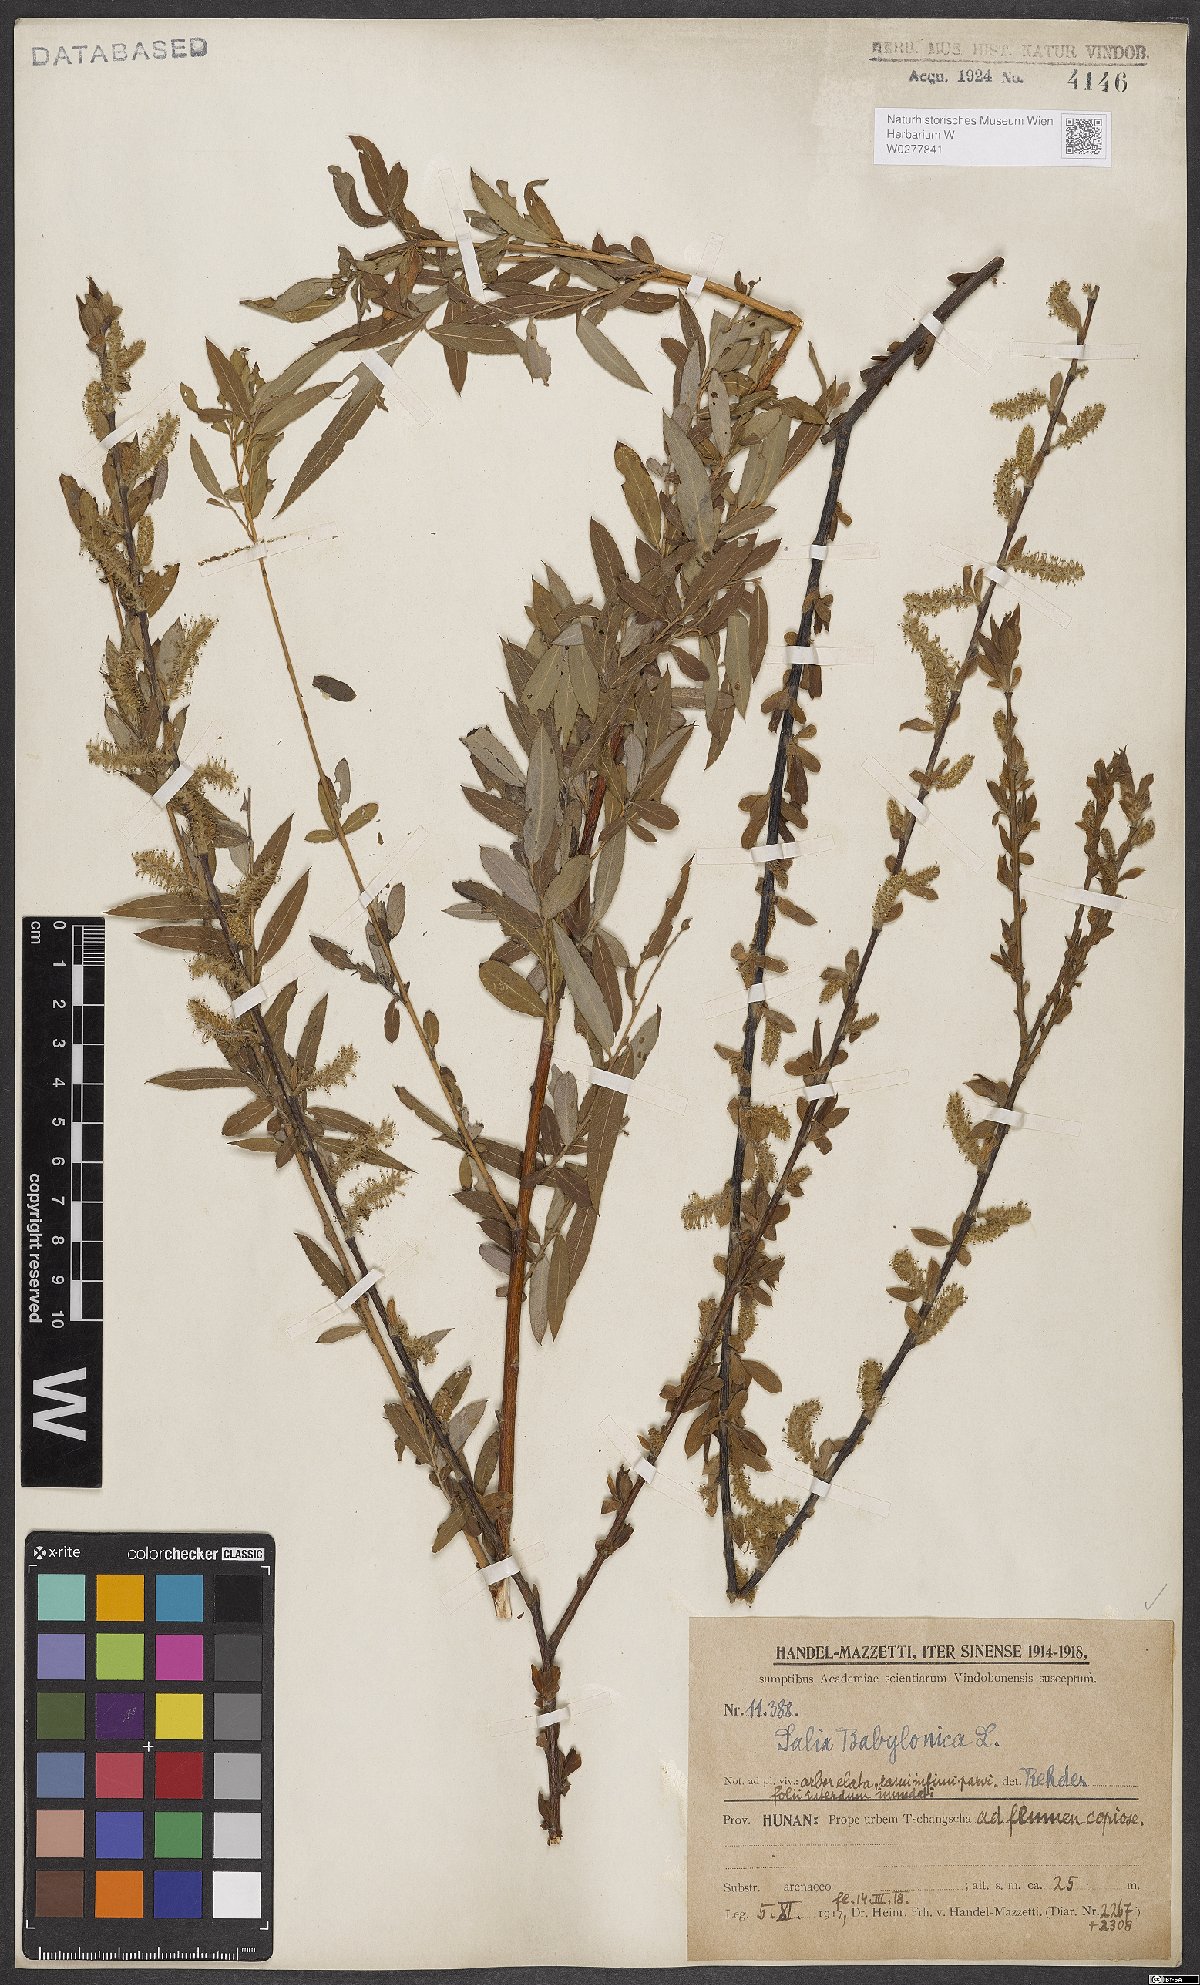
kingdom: Plantae
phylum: Tracheophyta
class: Magnoliopsida
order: Malpighiales
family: Salicaceae
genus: Salix
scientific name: Salix babylonica
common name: Weeping willow
